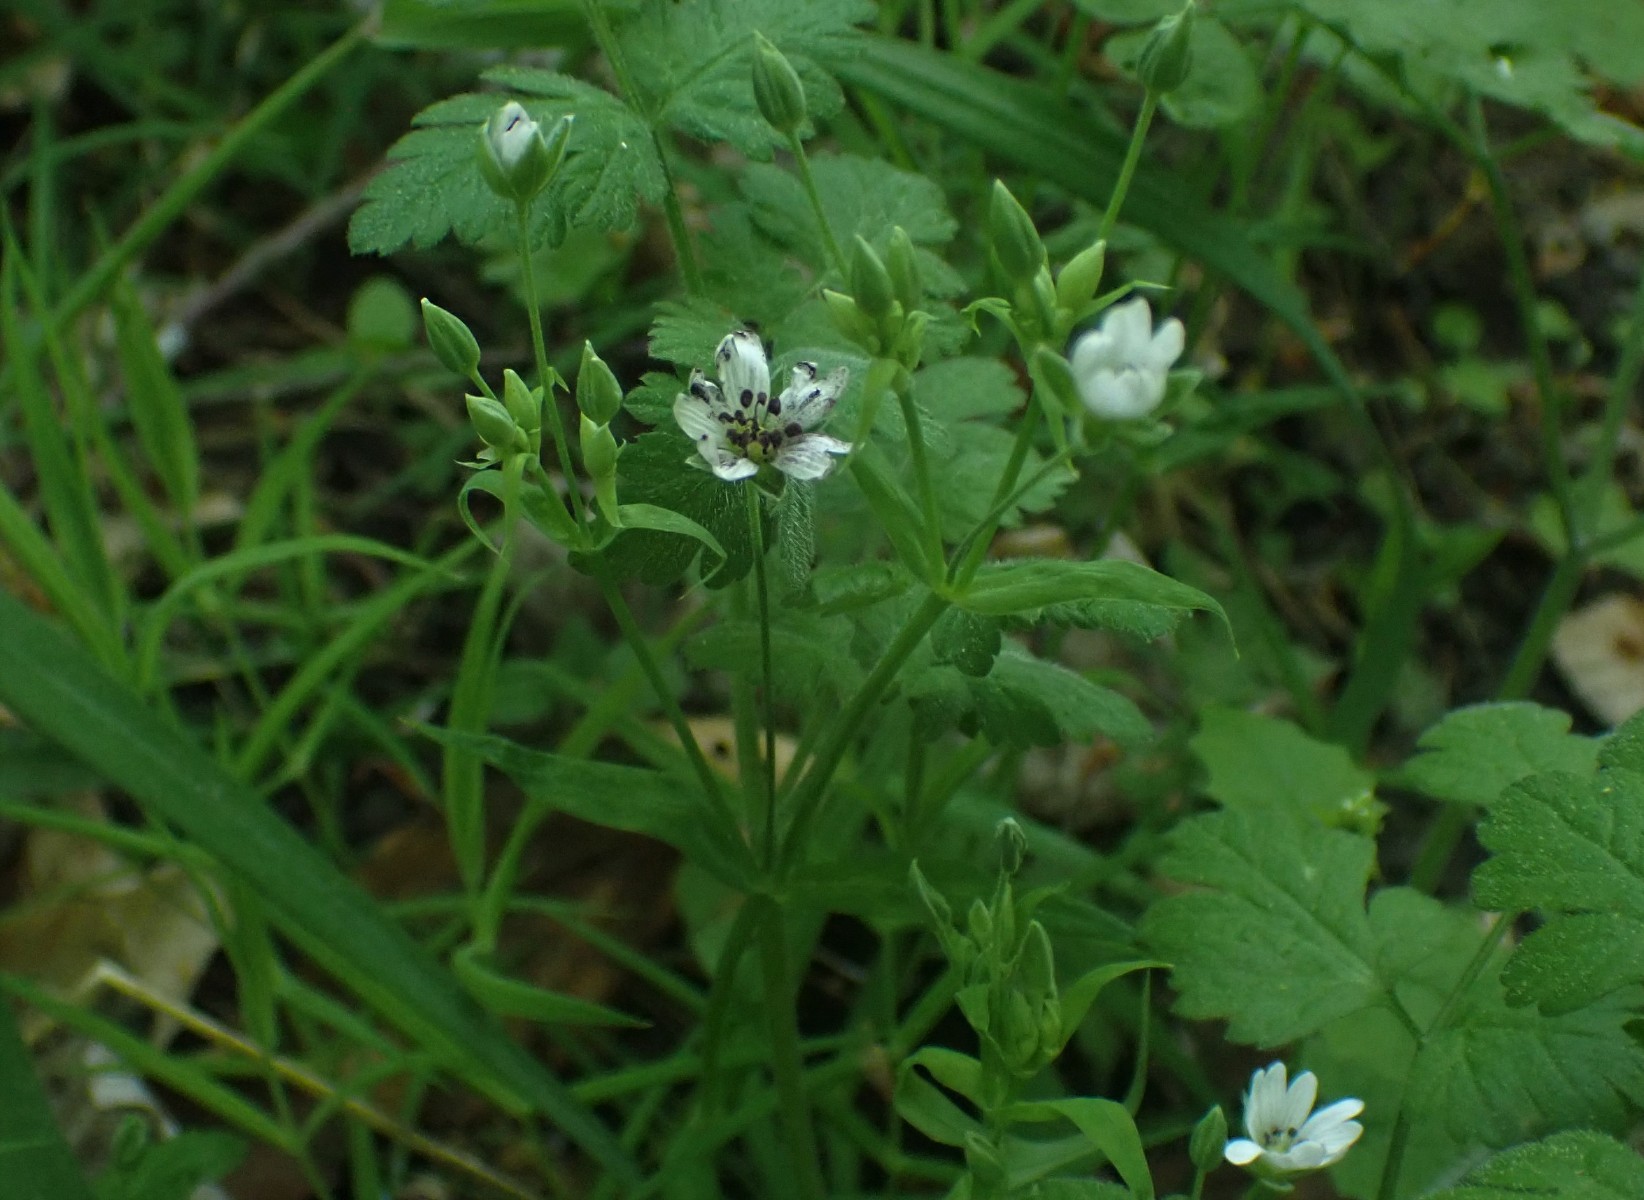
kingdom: Fungi
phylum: Basidiomycota
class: Microbotryomycetes
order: Microbotryales
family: Microbotryaceae
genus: Microbotryum
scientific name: Microbotryum stellariae
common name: fladstjerne-støvbladrust
